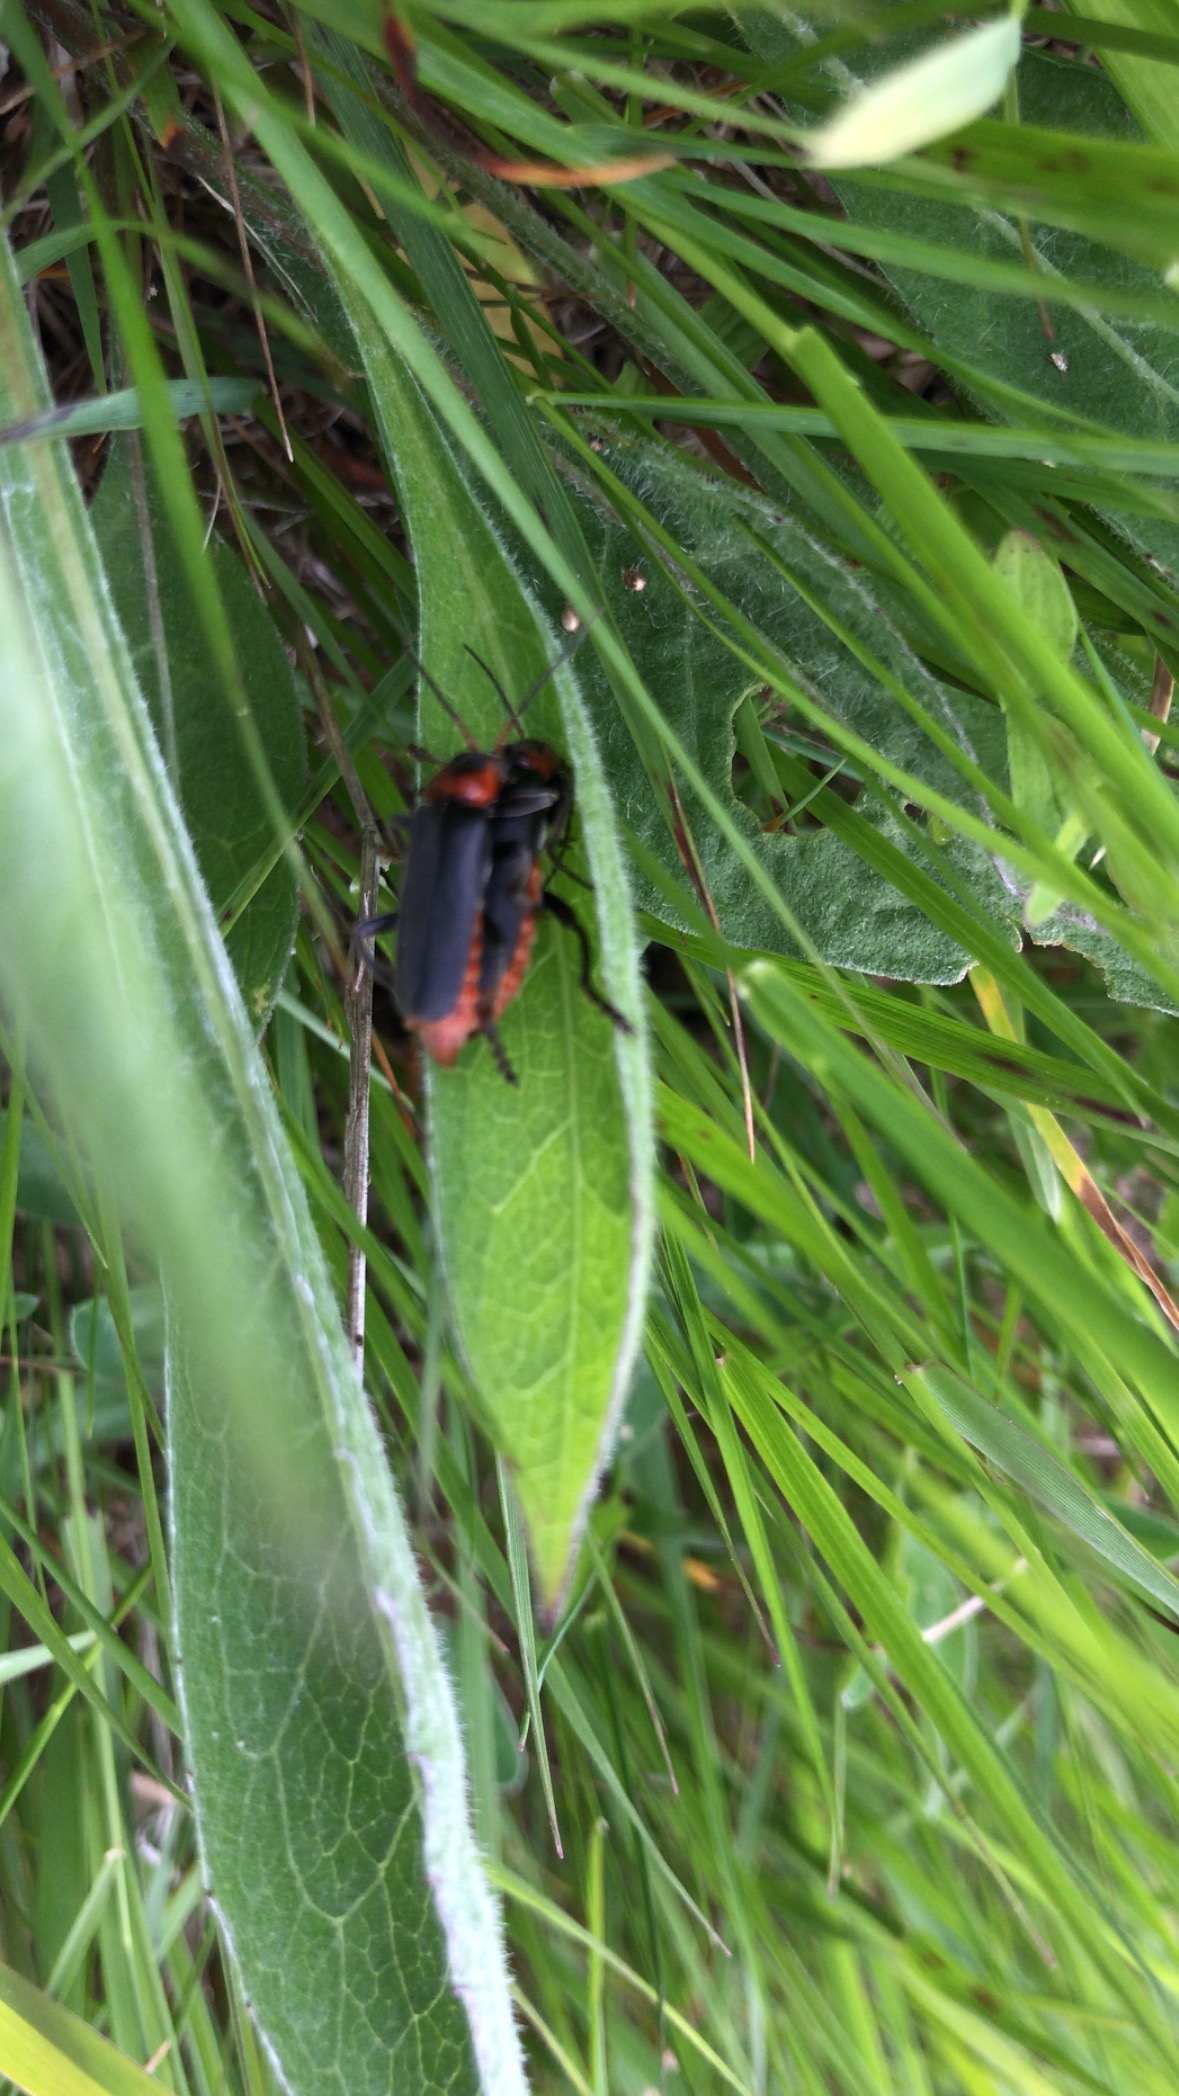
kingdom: Animalia
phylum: Arthropoda
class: Insecta
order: Coleoptera
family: Cantharidae
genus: Cantharis
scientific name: Cantharis fusca
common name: Stor blødvinge
